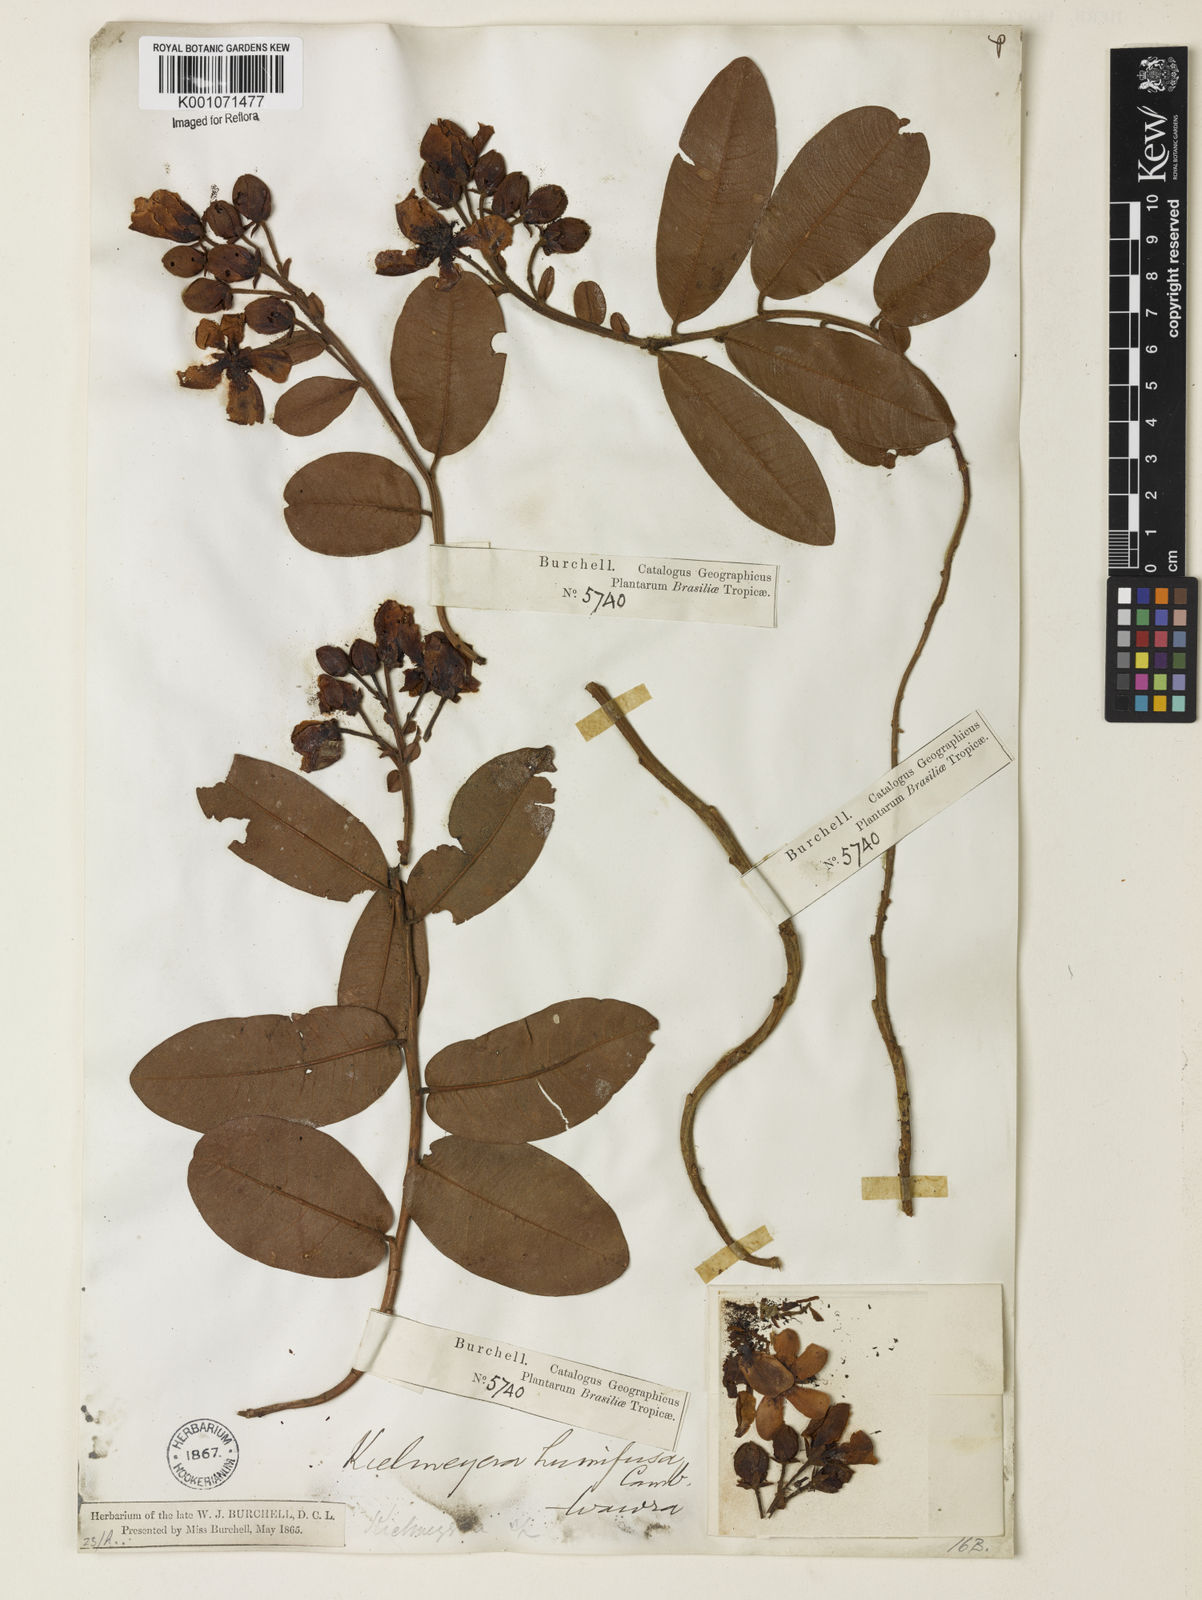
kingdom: Plantae
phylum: Tracheophyta
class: Magnoliopsida
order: Malpighiales
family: Calophyllaceae
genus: Kielmeyera
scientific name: Kielmeyera humifusa
